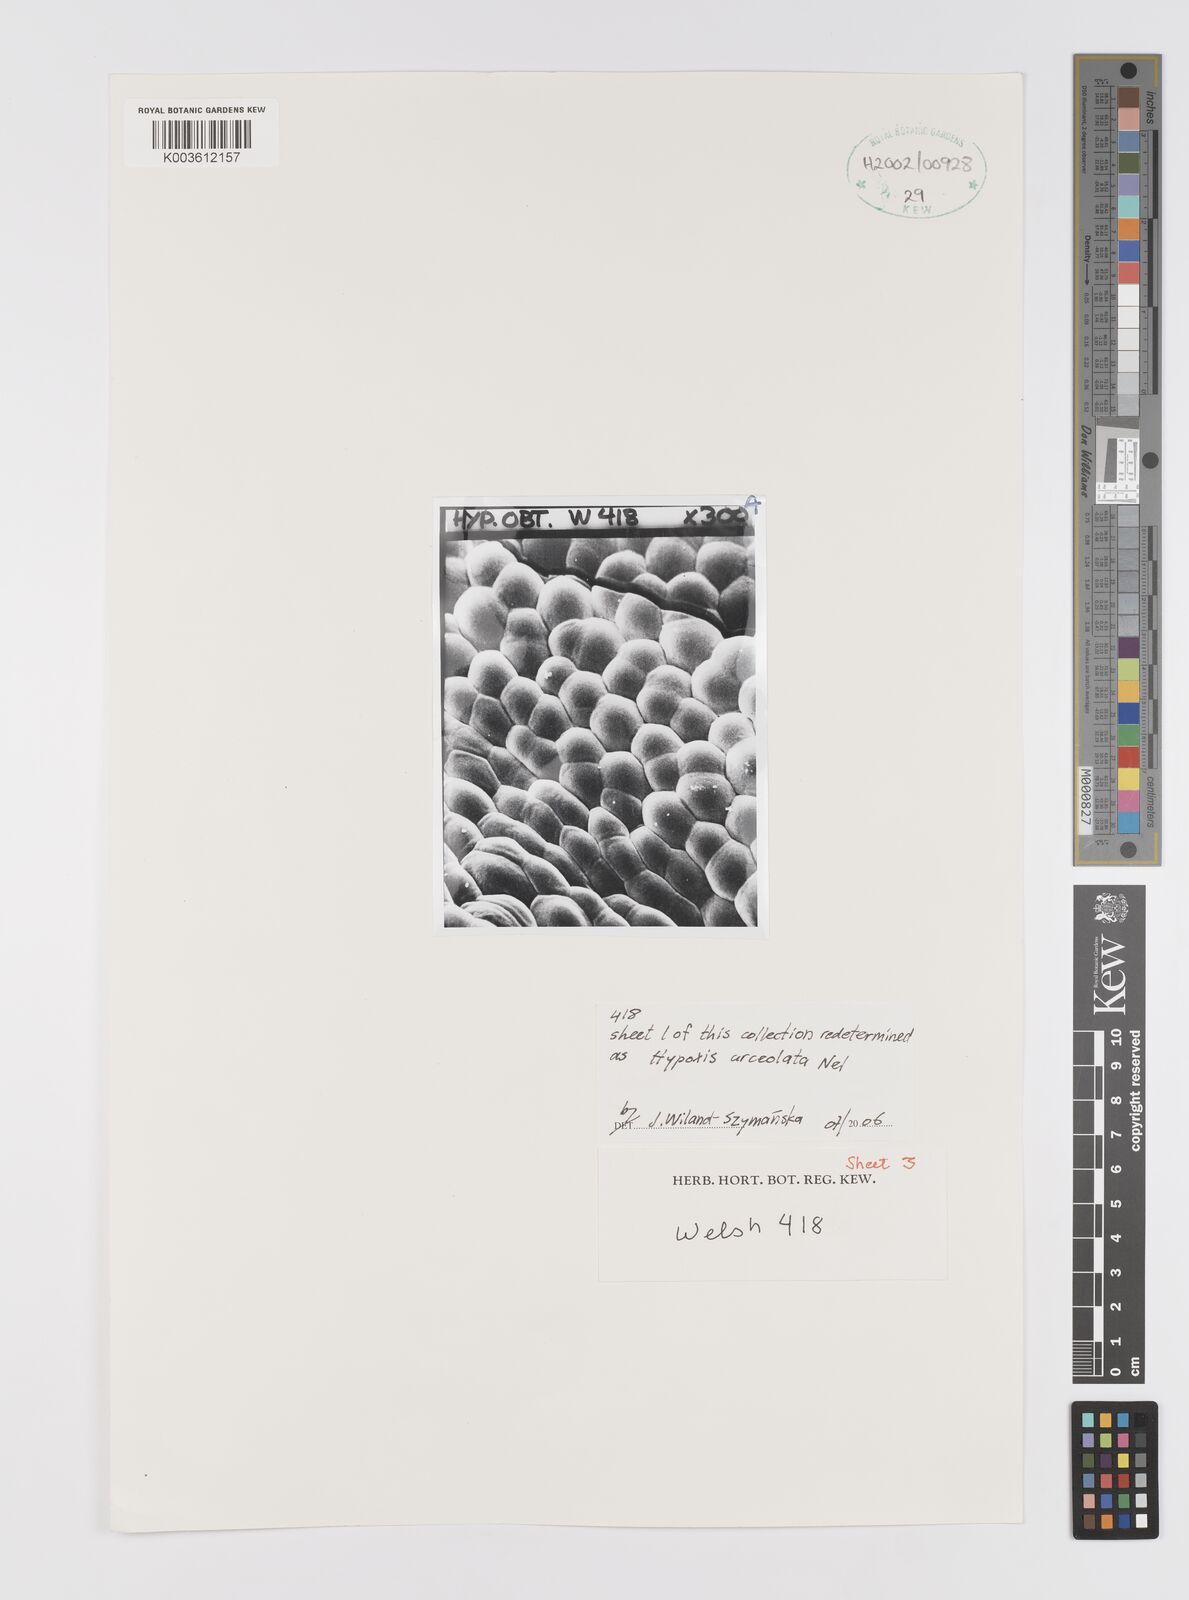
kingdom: Plantae
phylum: Tracheophyta
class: Liliopsida
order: Asparagales
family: Hypoxidaceae
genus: Hypoxis
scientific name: Hypoxis urceolata
